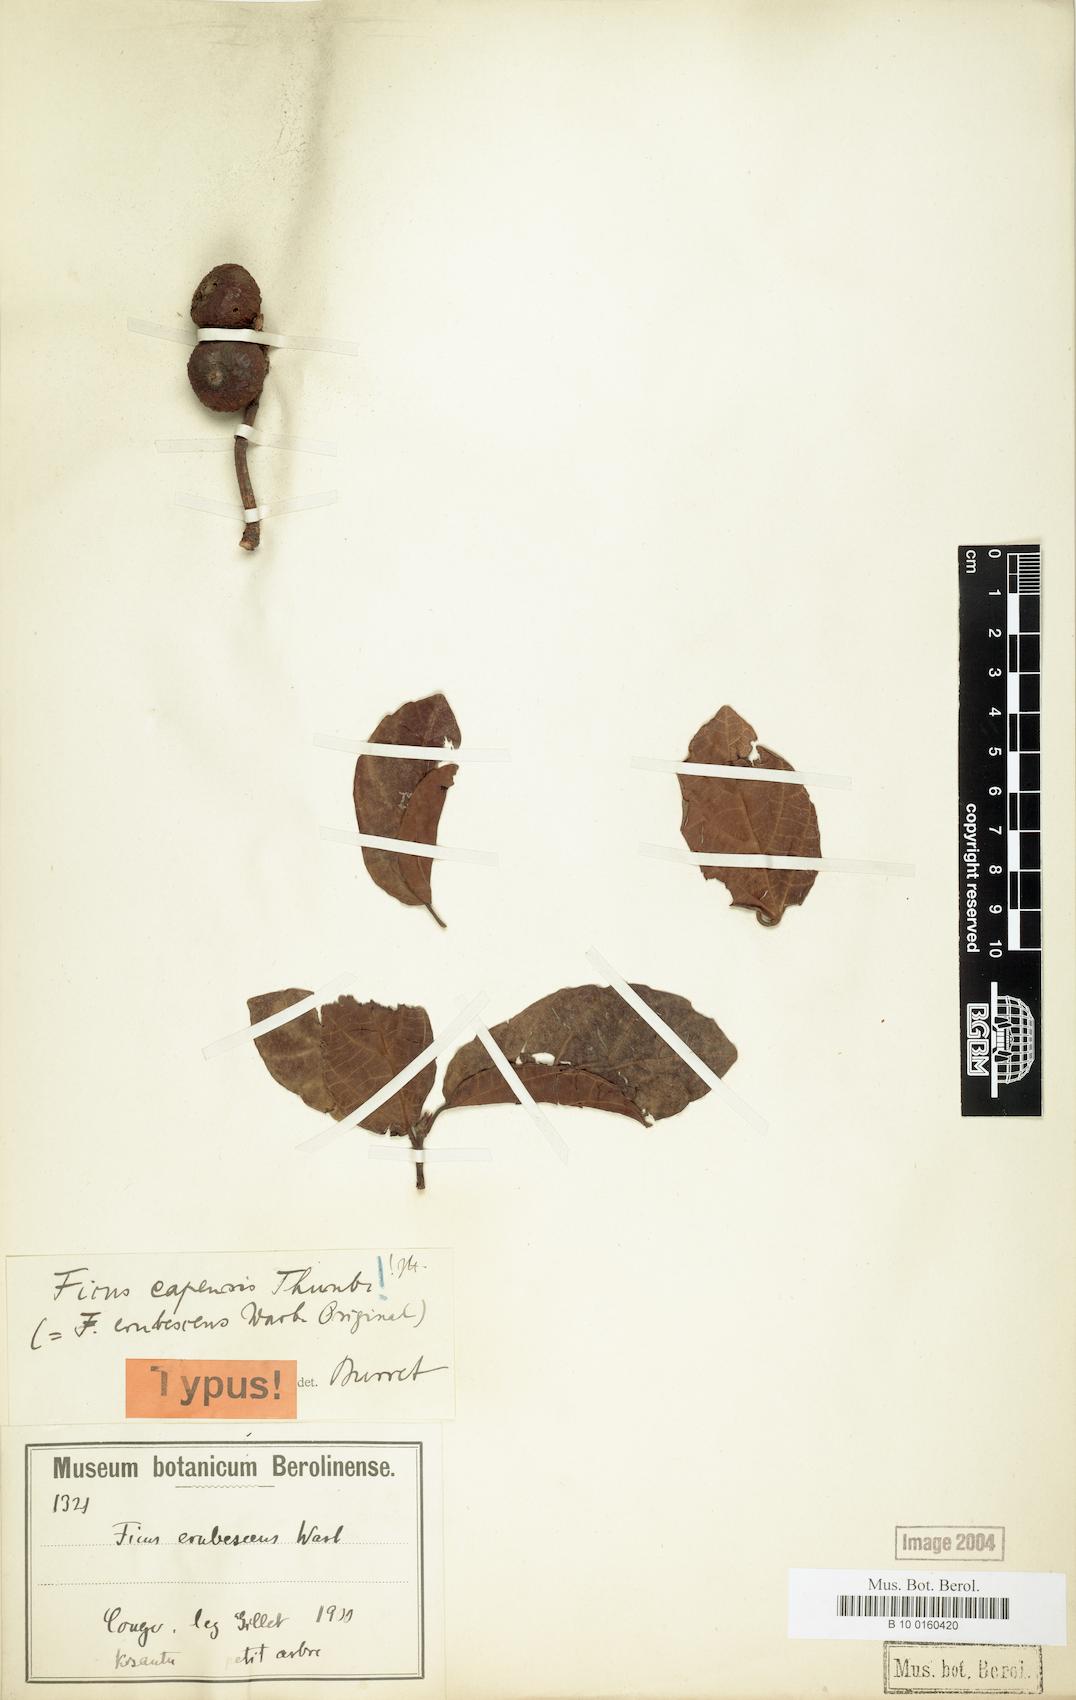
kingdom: Plantae
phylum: Tracheophyta
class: Magnoliopsida
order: Rosales
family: Moraceae
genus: Ficus
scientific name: Ficus sur
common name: Cape fig
